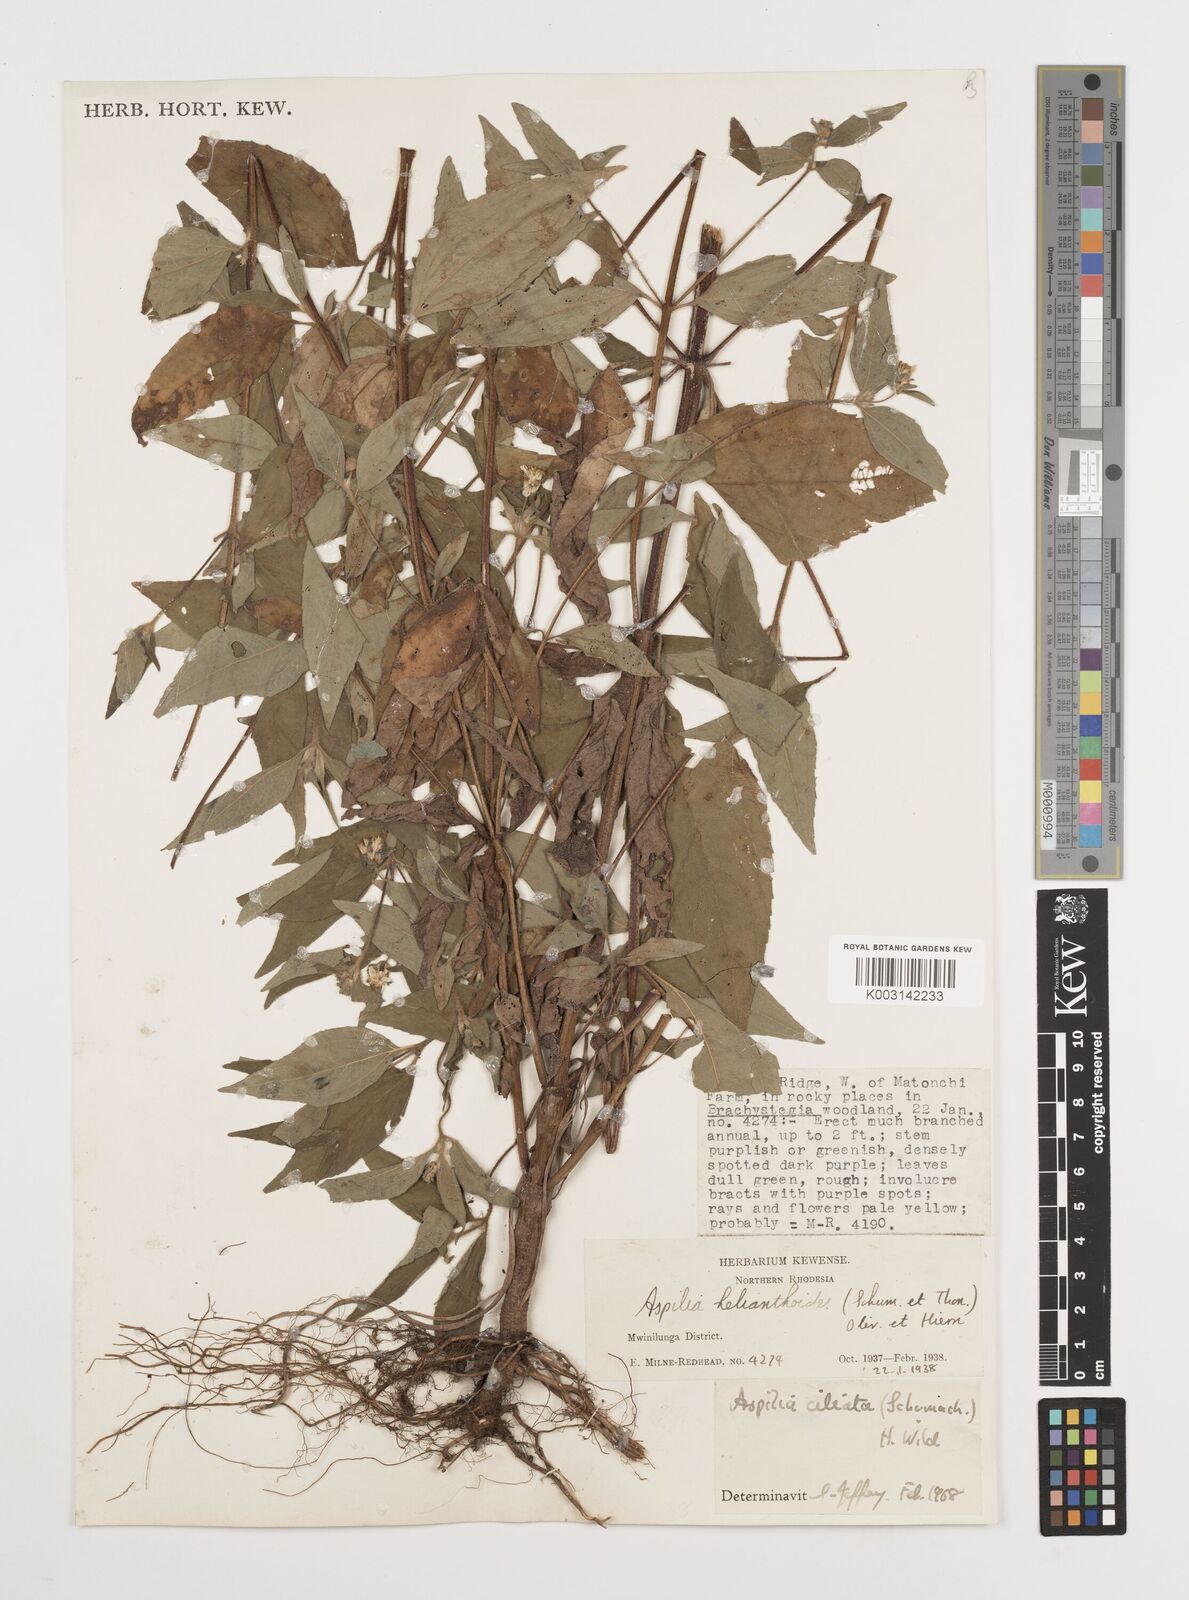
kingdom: Plantae
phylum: Tracheophyta
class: Magnoliopsida
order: Asterales
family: Asteraceae
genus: Aspilia
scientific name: Aspilia ciliata
